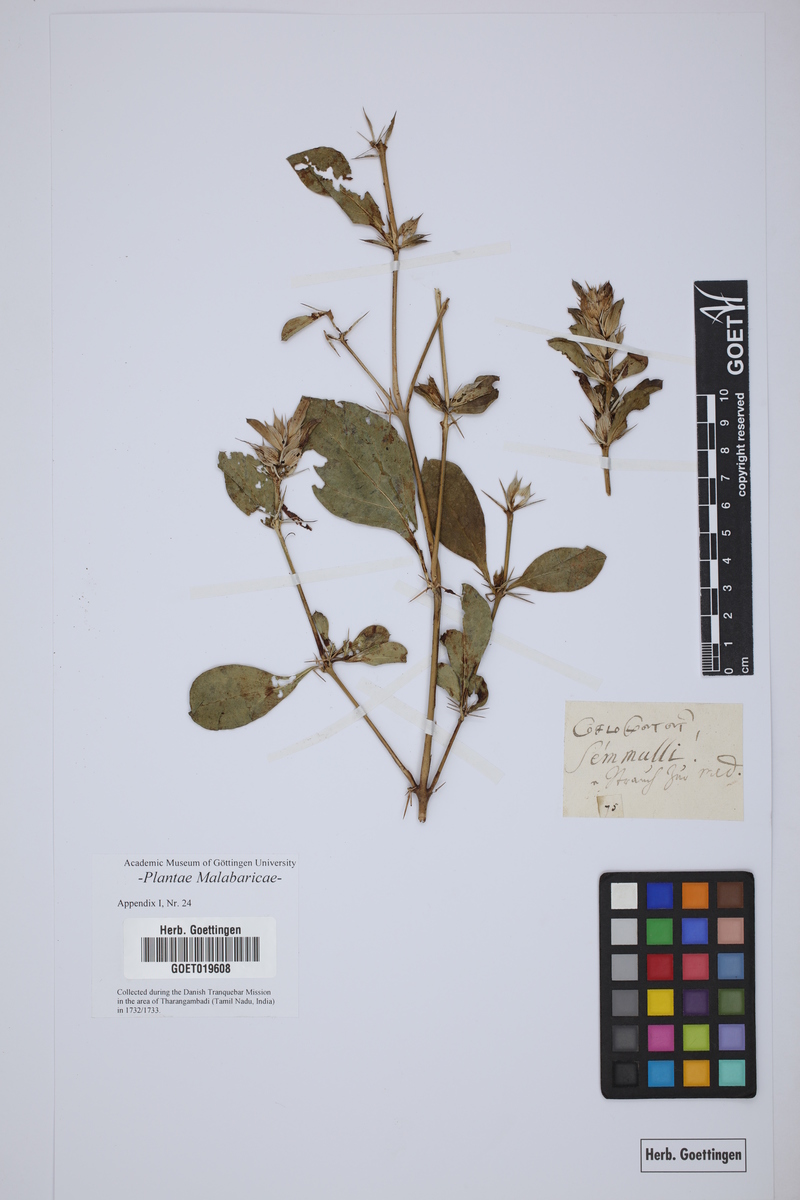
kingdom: Plantae
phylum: Tracheophyta
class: Magnoliopsida
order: Lamiales
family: Acanthaceae
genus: Barleria
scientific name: Barleria prionitis
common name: Barleria
